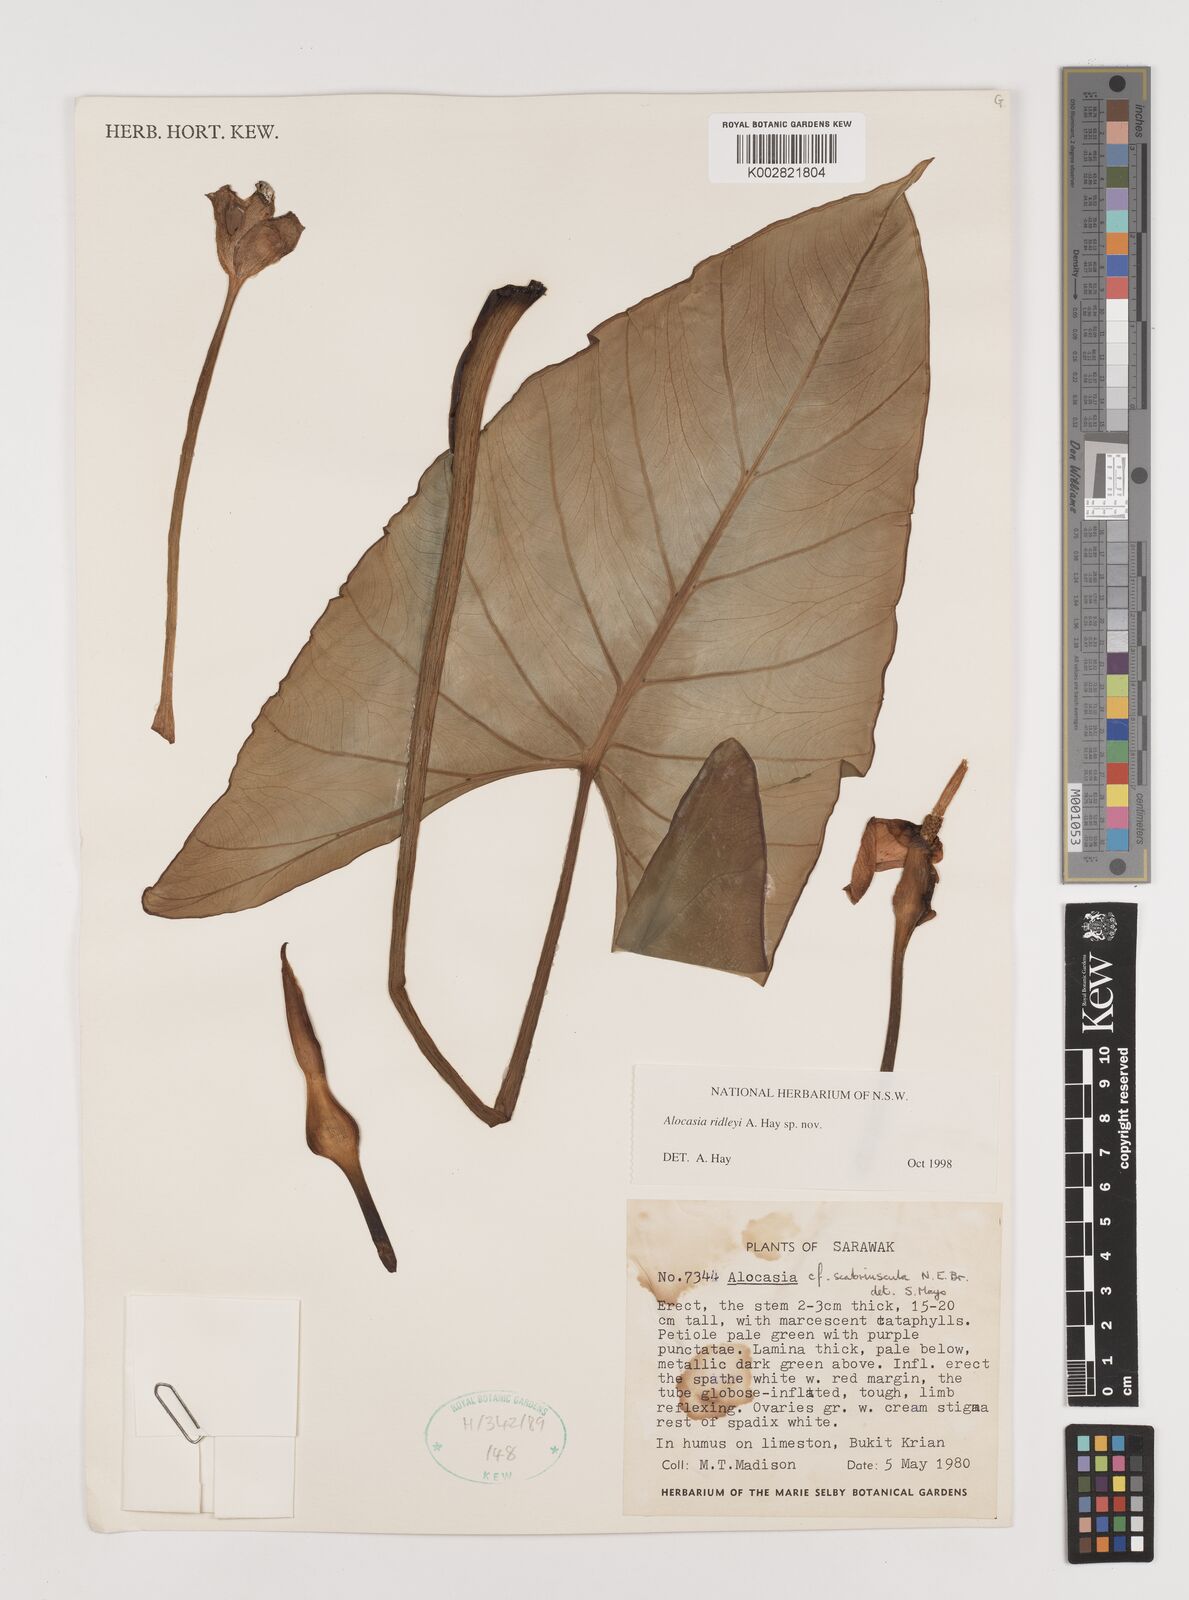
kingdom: Plantae
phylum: Tracheophyta
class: Liliopsida
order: Alismatales
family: Araceae
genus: Alocasia
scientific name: Alocasia ridleyi
